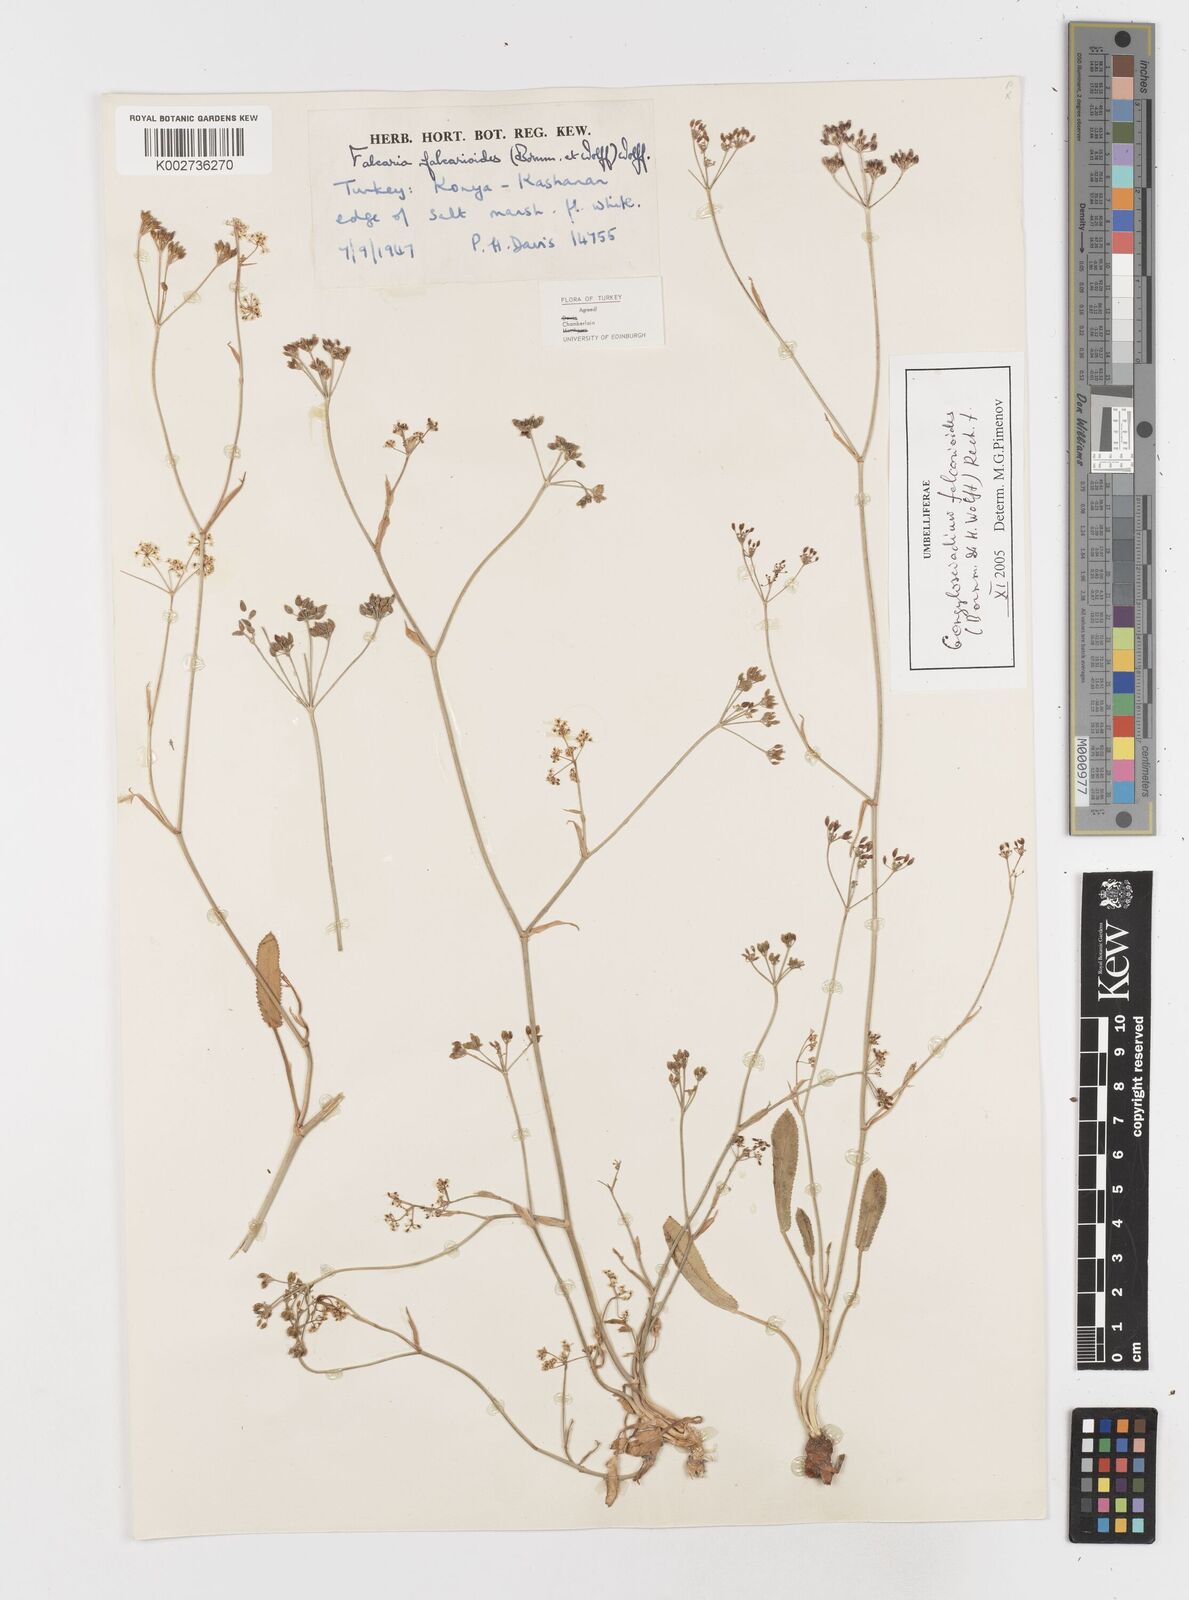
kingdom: Plantae
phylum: Tracheophyta
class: Magnoliopsida
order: Apiales
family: Apiaceae
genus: Gongylosciadium
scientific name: Gongylosciadium falcarioides
